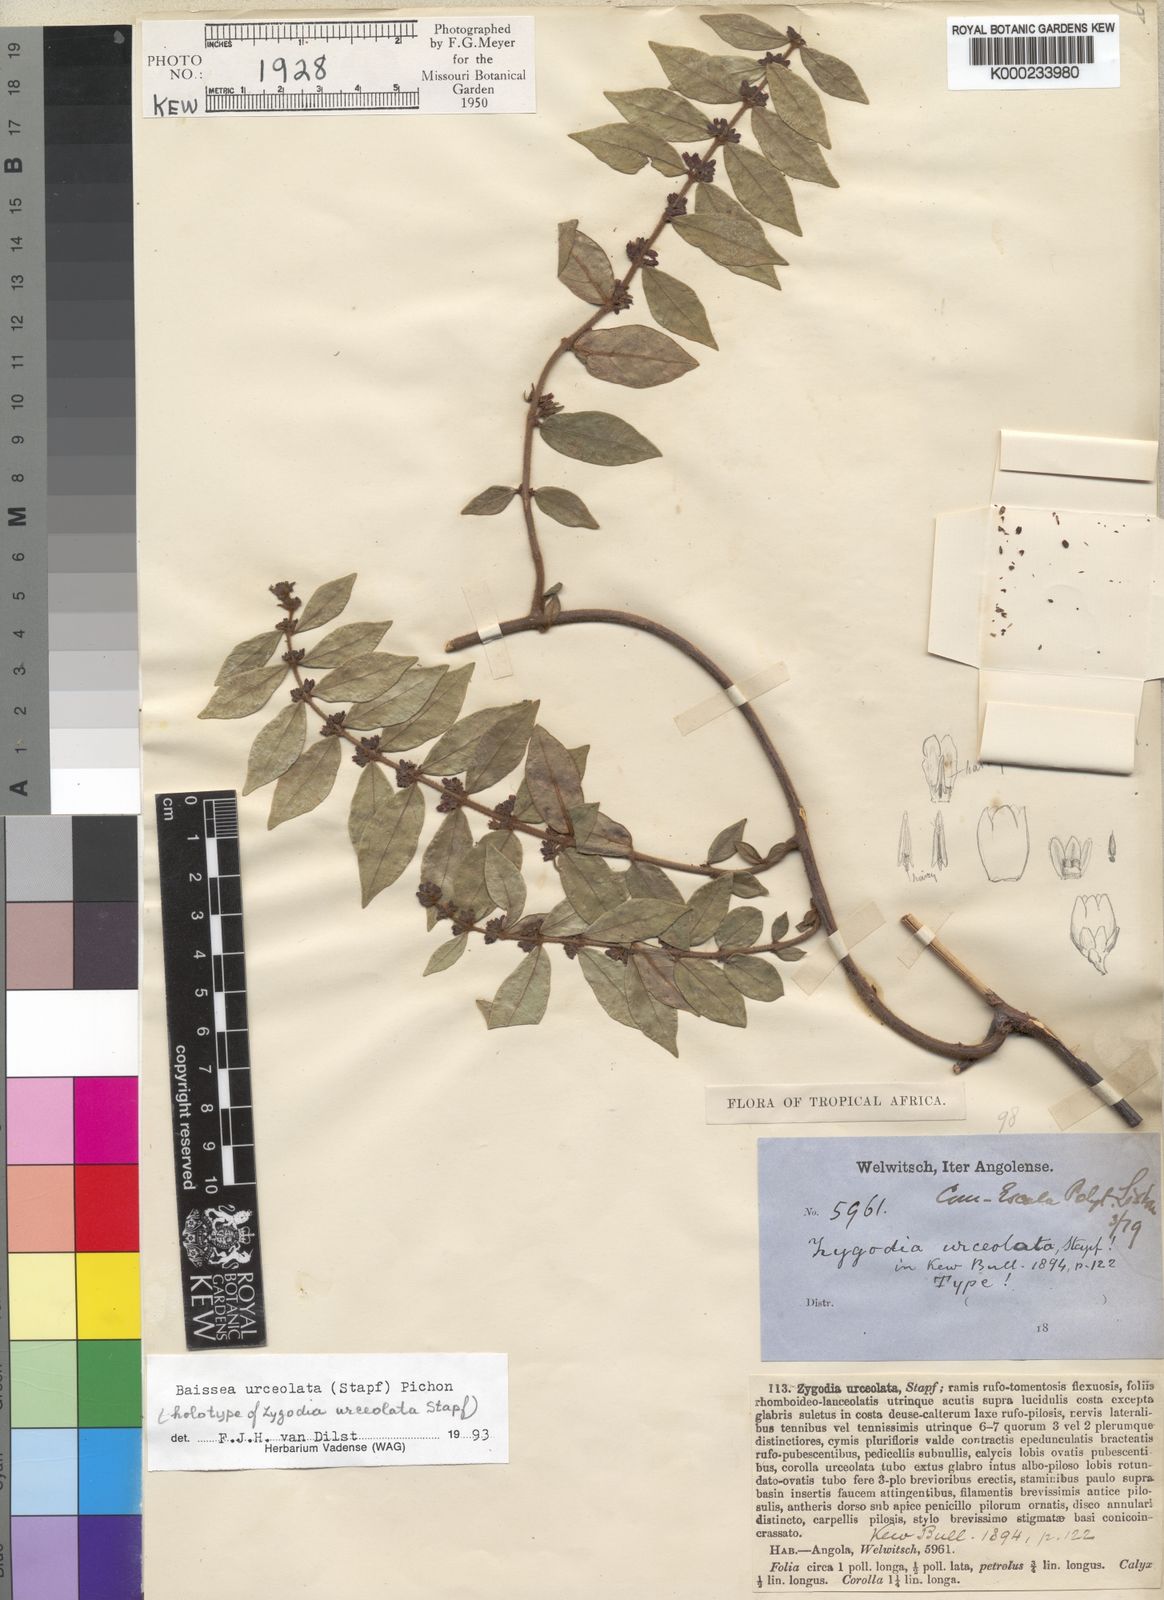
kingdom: Plantae
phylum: Tracheophyta
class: Magnoliopsida
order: Gentianales
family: Apocynaceae
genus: Baissea
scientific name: Baissea myrtifolia
